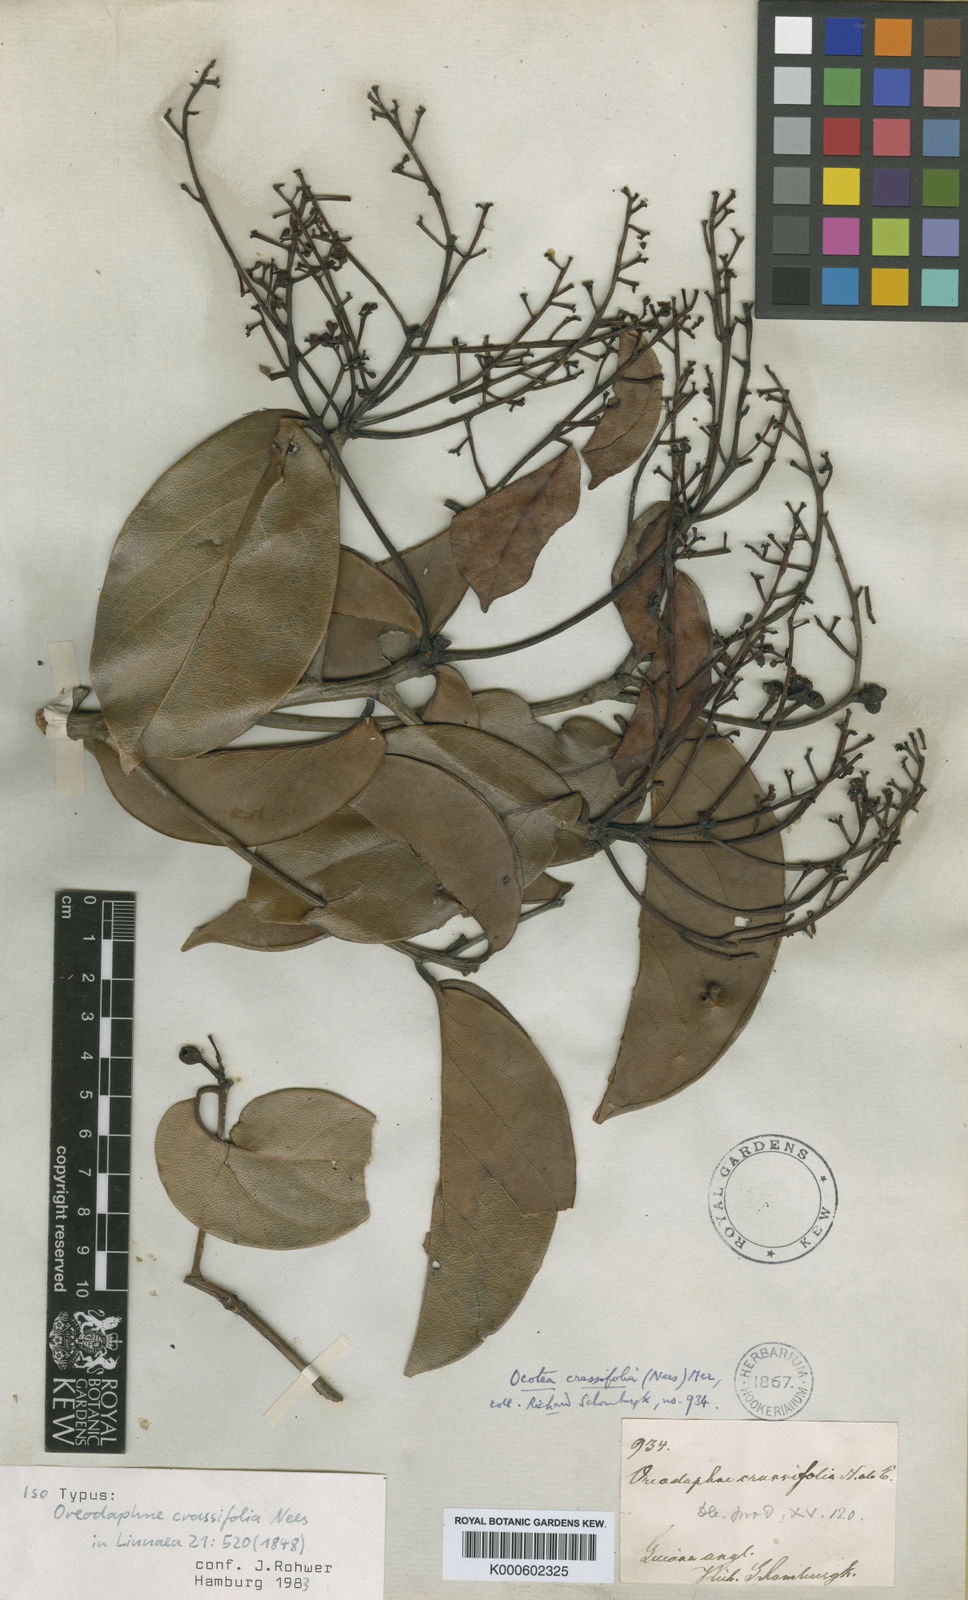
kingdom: Plantae
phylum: Tracheophyta
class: Magnoliopsida
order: Laurales
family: Lauraceae
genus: Ocotea
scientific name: Ocotea crassifolia
